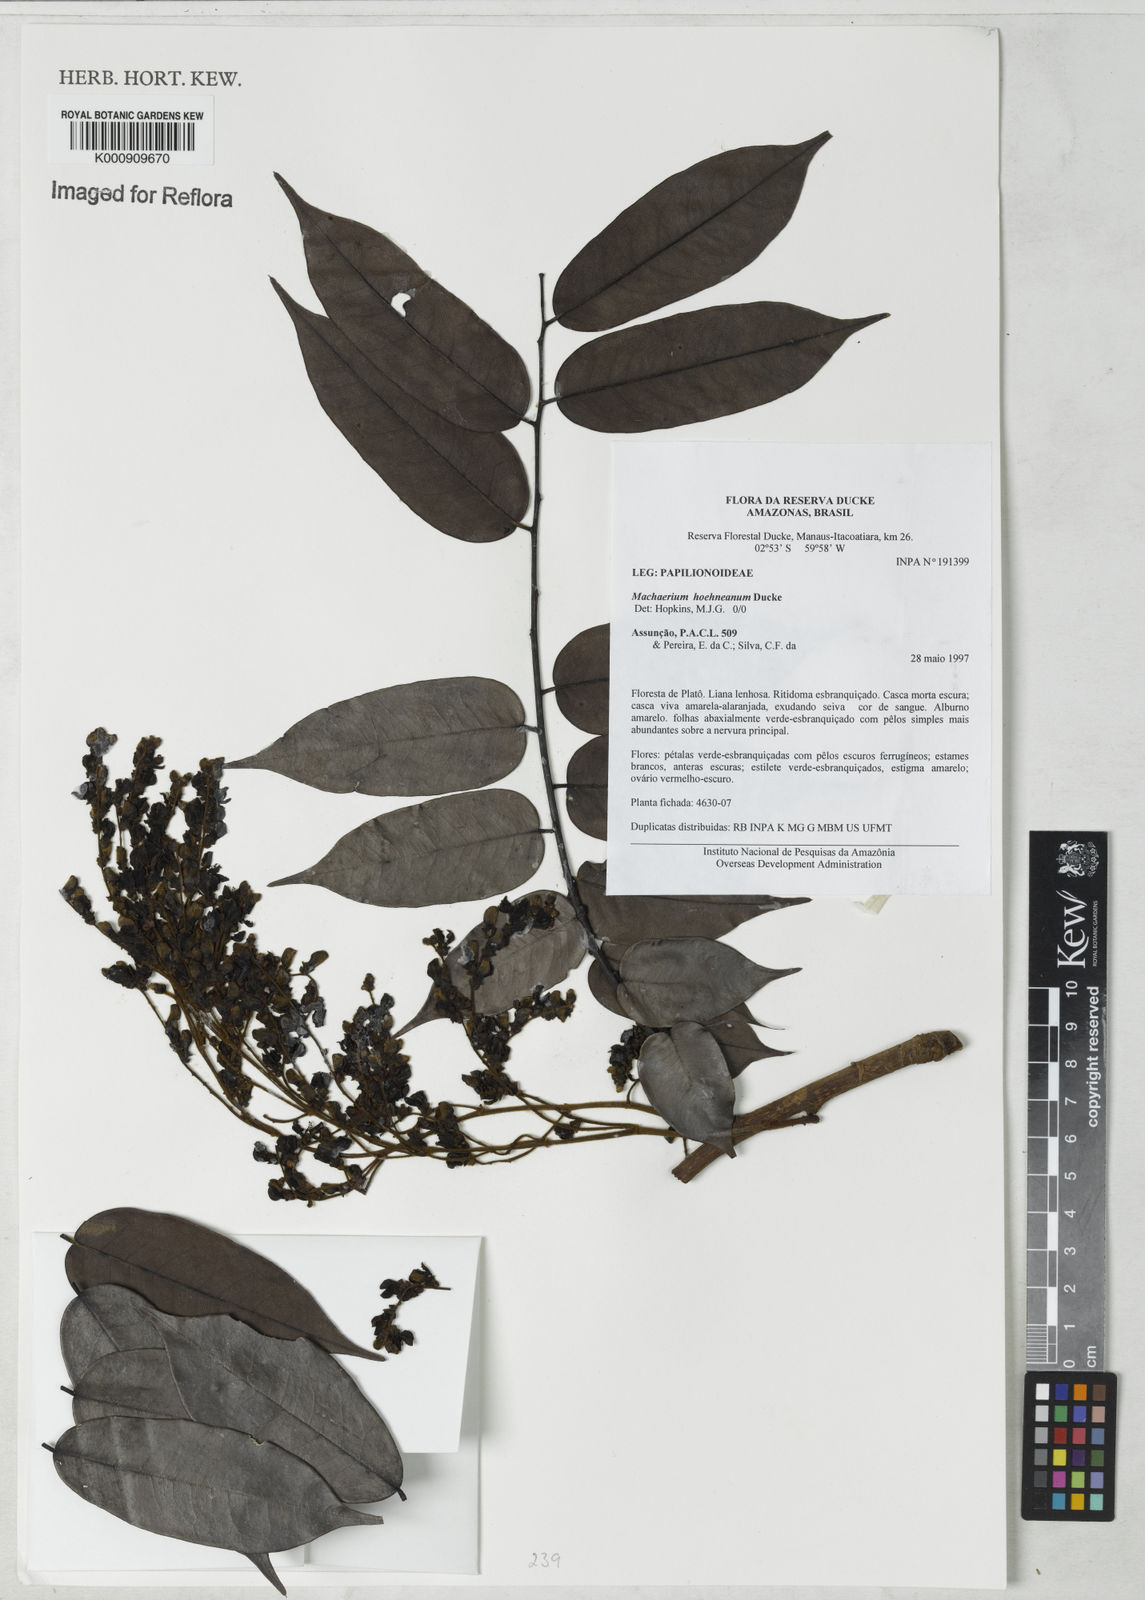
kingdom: Plantae
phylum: Tracheophyta
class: Magnoliopsida
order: Fabales
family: Fabaceae
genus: Machaerium
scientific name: Machaerium hoehneanum
